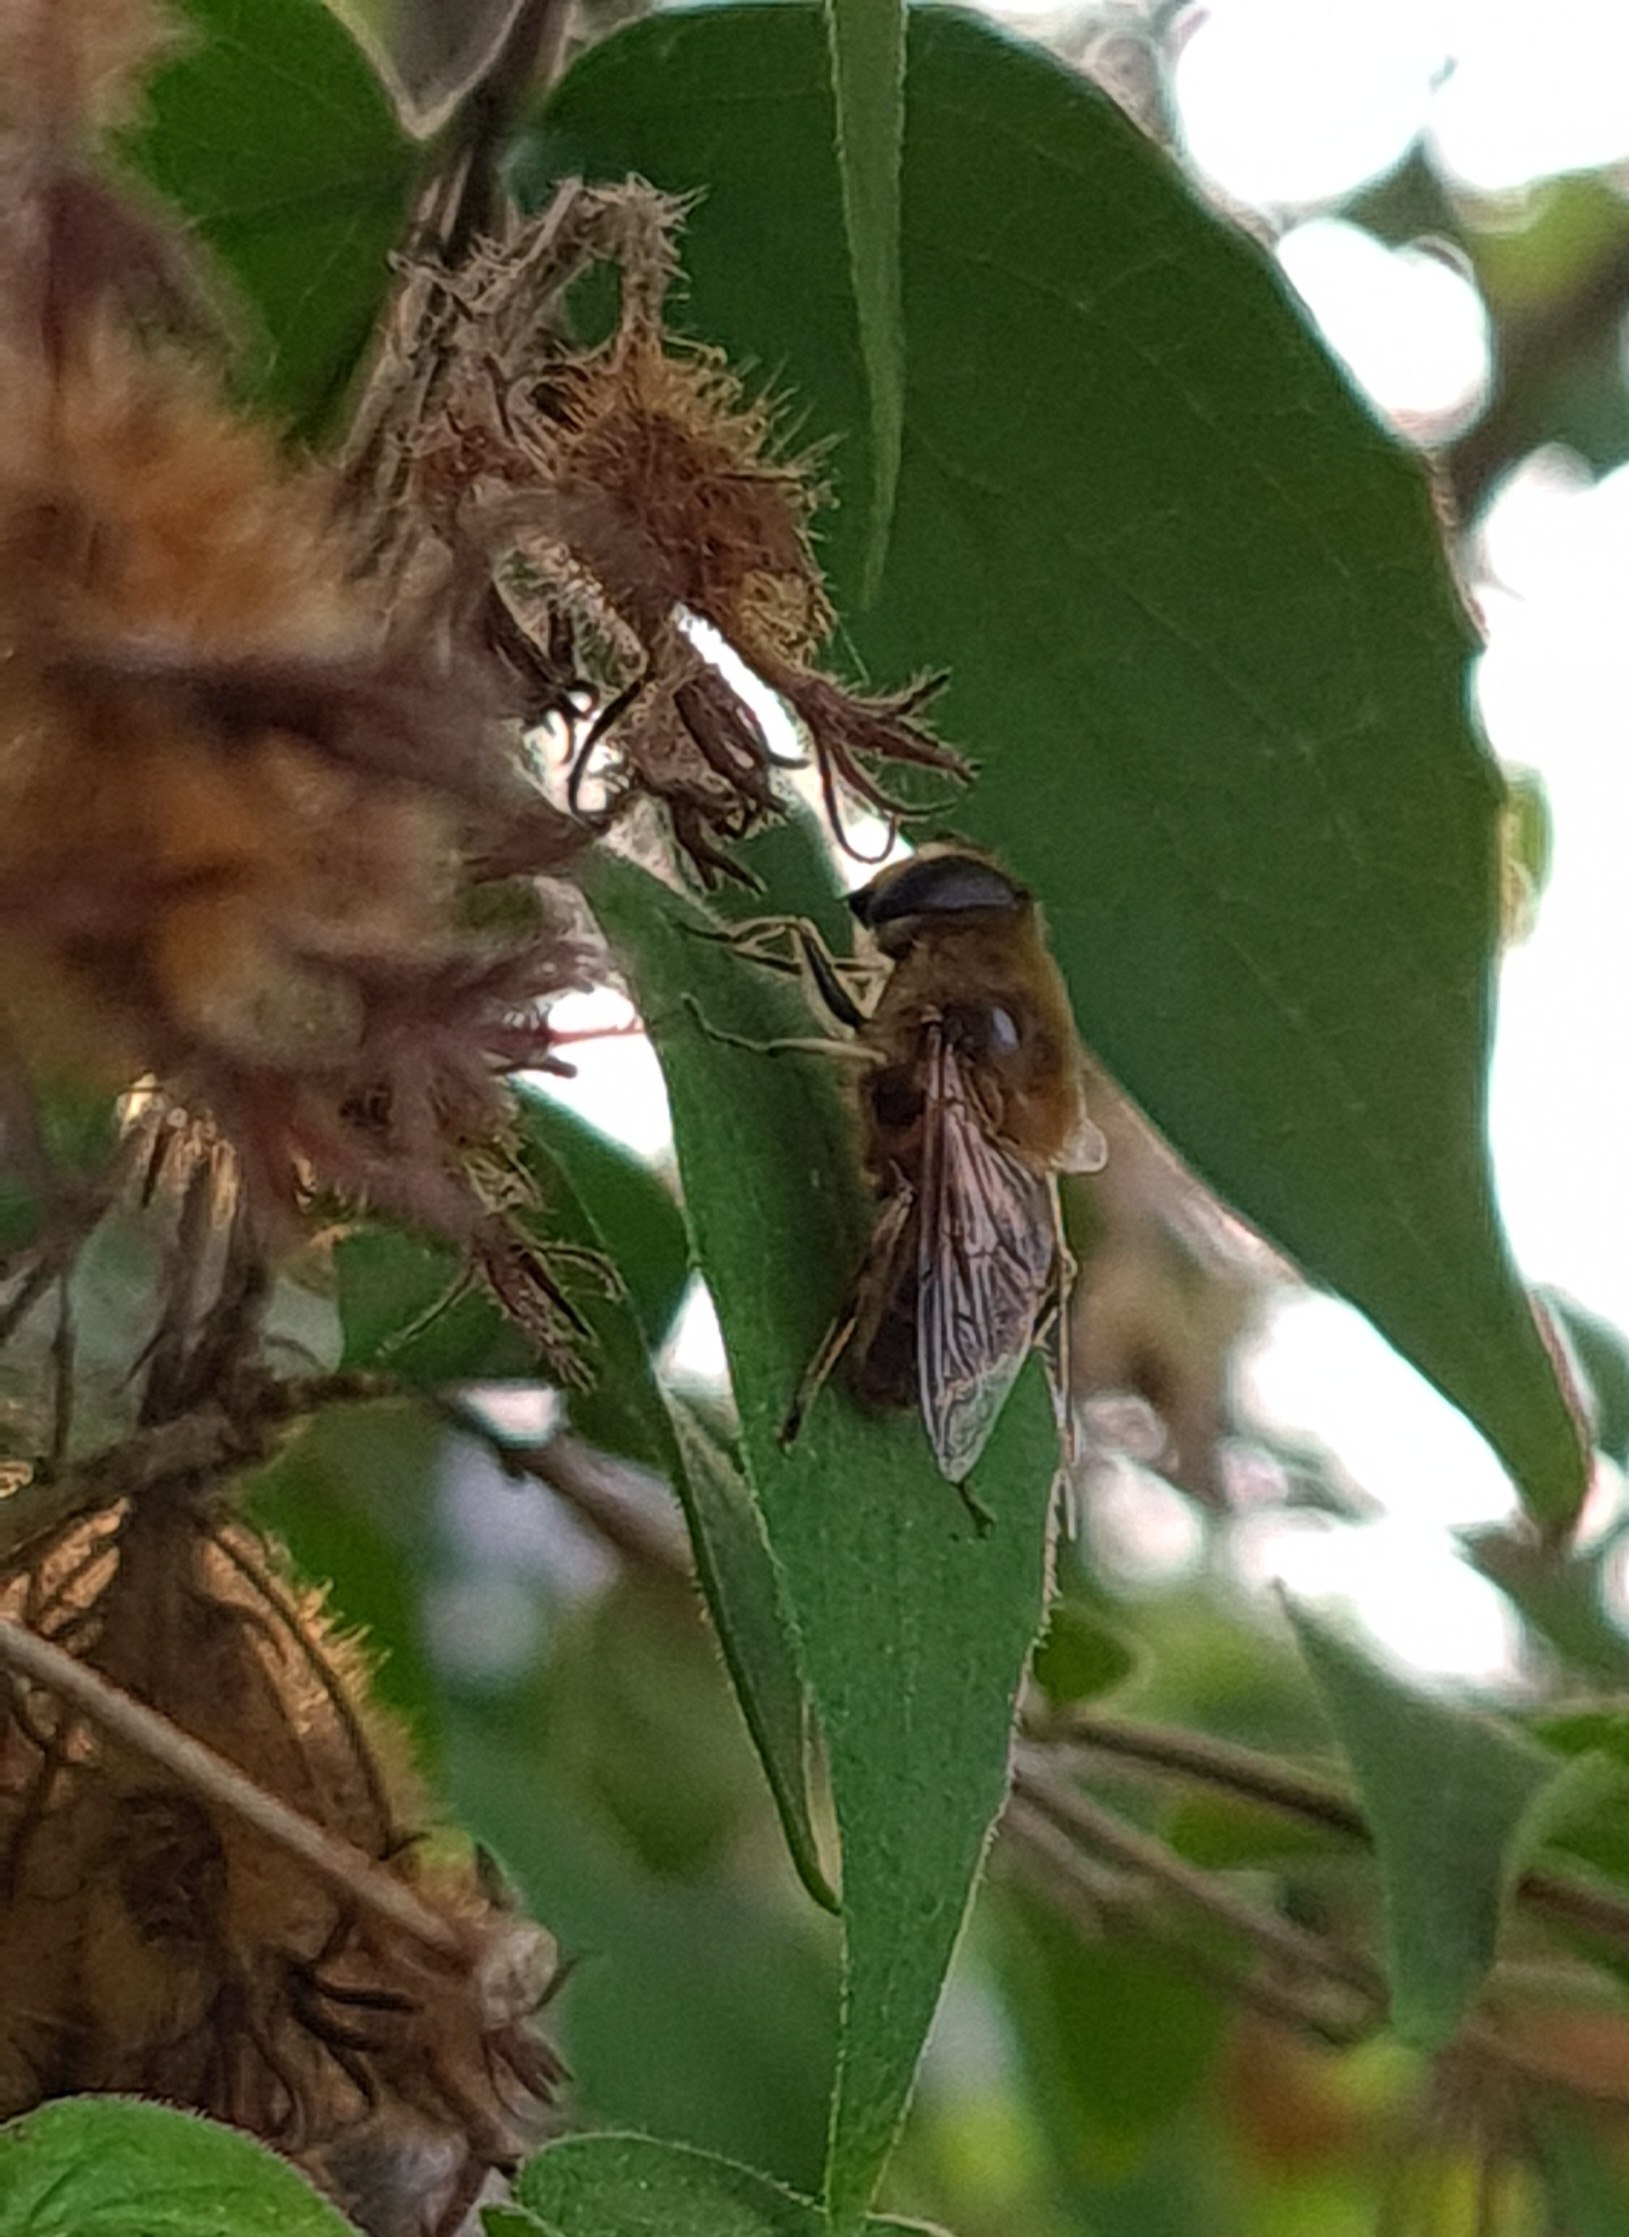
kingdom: Animalia
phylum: Arthropoda
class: Insecta
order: Diptera
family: Syrphidae
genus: Eristalis
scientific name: Eristalis tenax
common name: Droneflue
